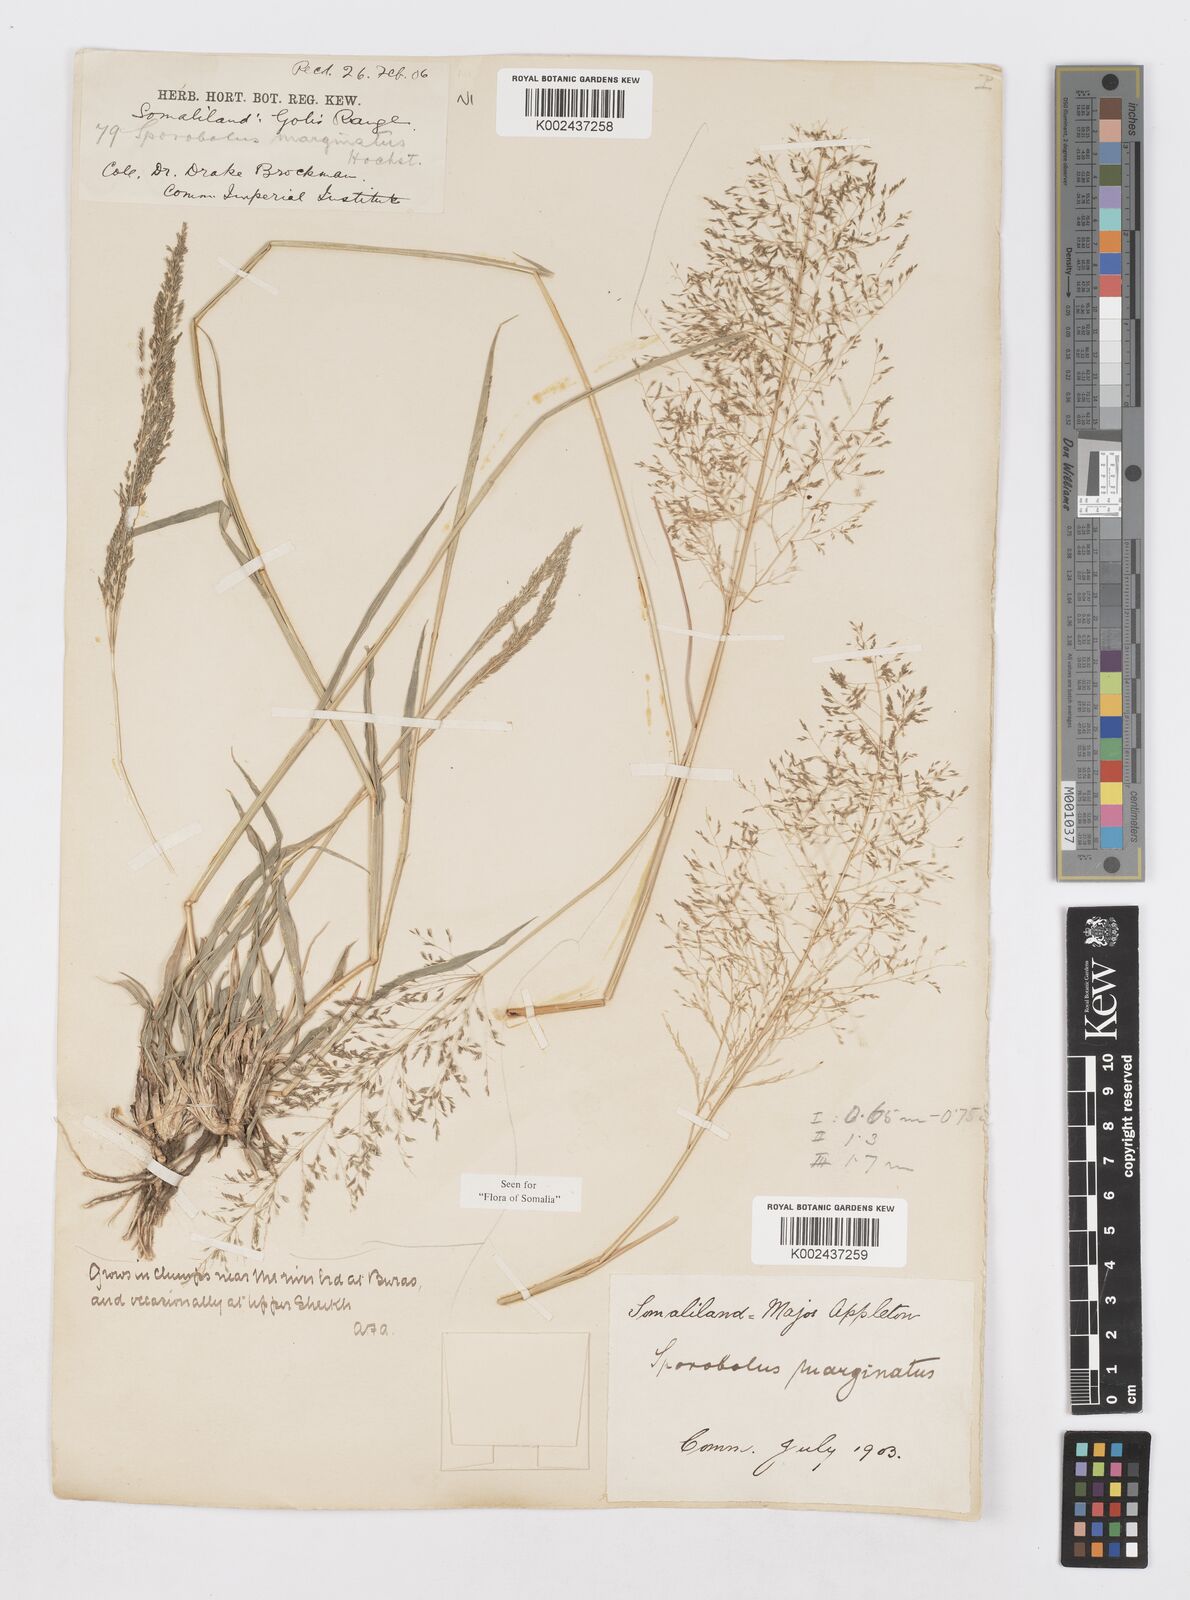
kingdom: Plantae
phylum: Tracheophyta
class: Liliopsida
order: Poales
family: Poaceae
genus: Sporobolus
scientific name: Sporobolus ioclados
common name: Pan dropseed
